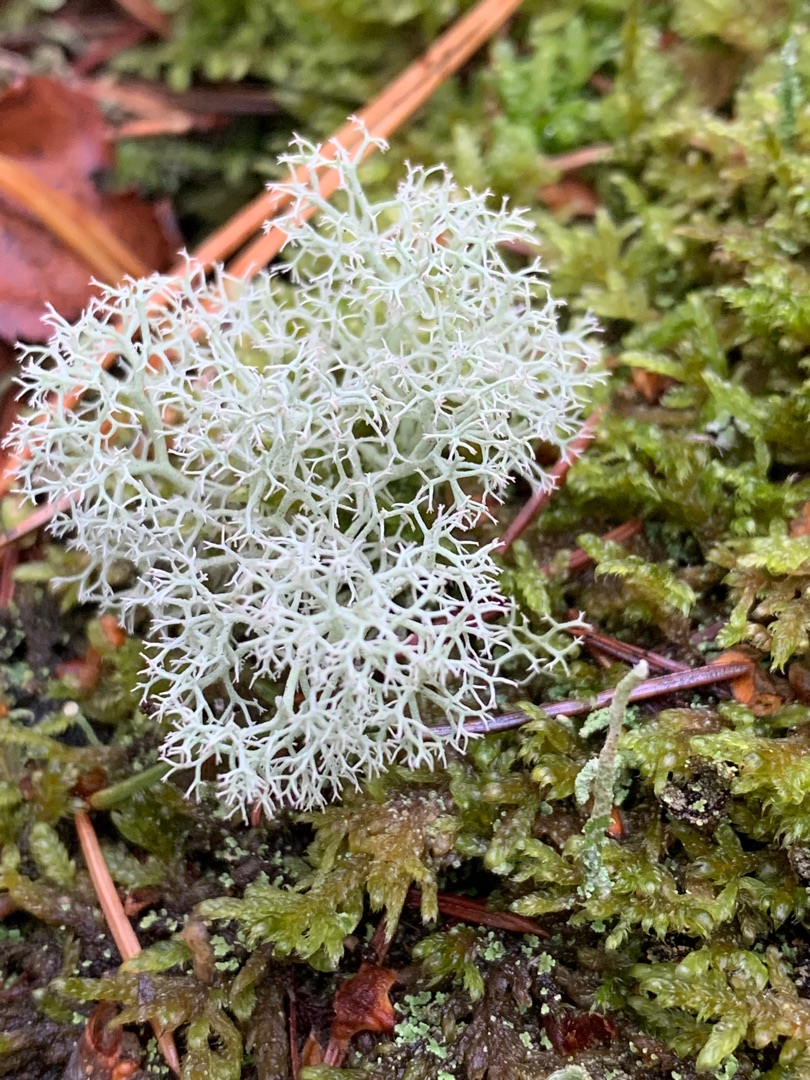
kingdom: Fungi
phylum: Ascomycota
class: Lecanoromycetes
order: Lecanorales
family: Cladoniaceae
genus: Cladonia
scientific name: Cladonia portentosa
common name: Hede-rensdyrlav
